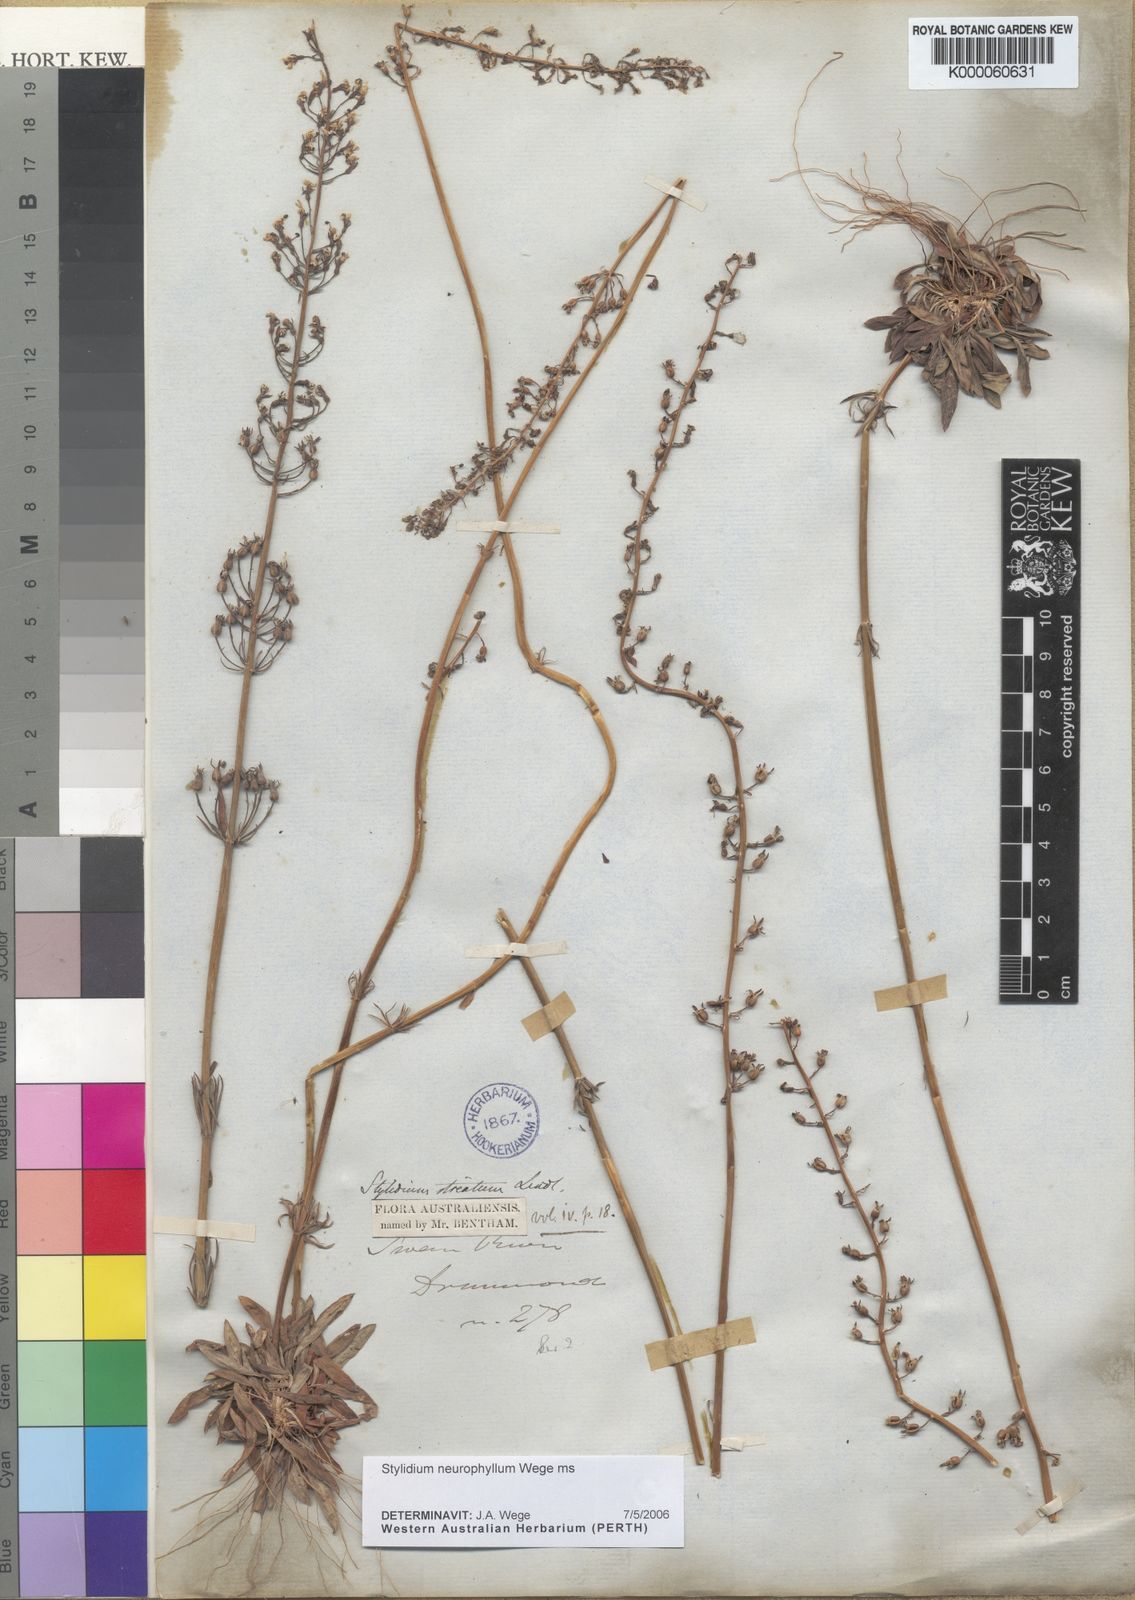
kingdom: Plantae
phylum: Tracheophyta
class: Magnoliopsida
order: Asterales
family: Stylidiaceae
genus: Stylidium
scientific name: Stylidium
